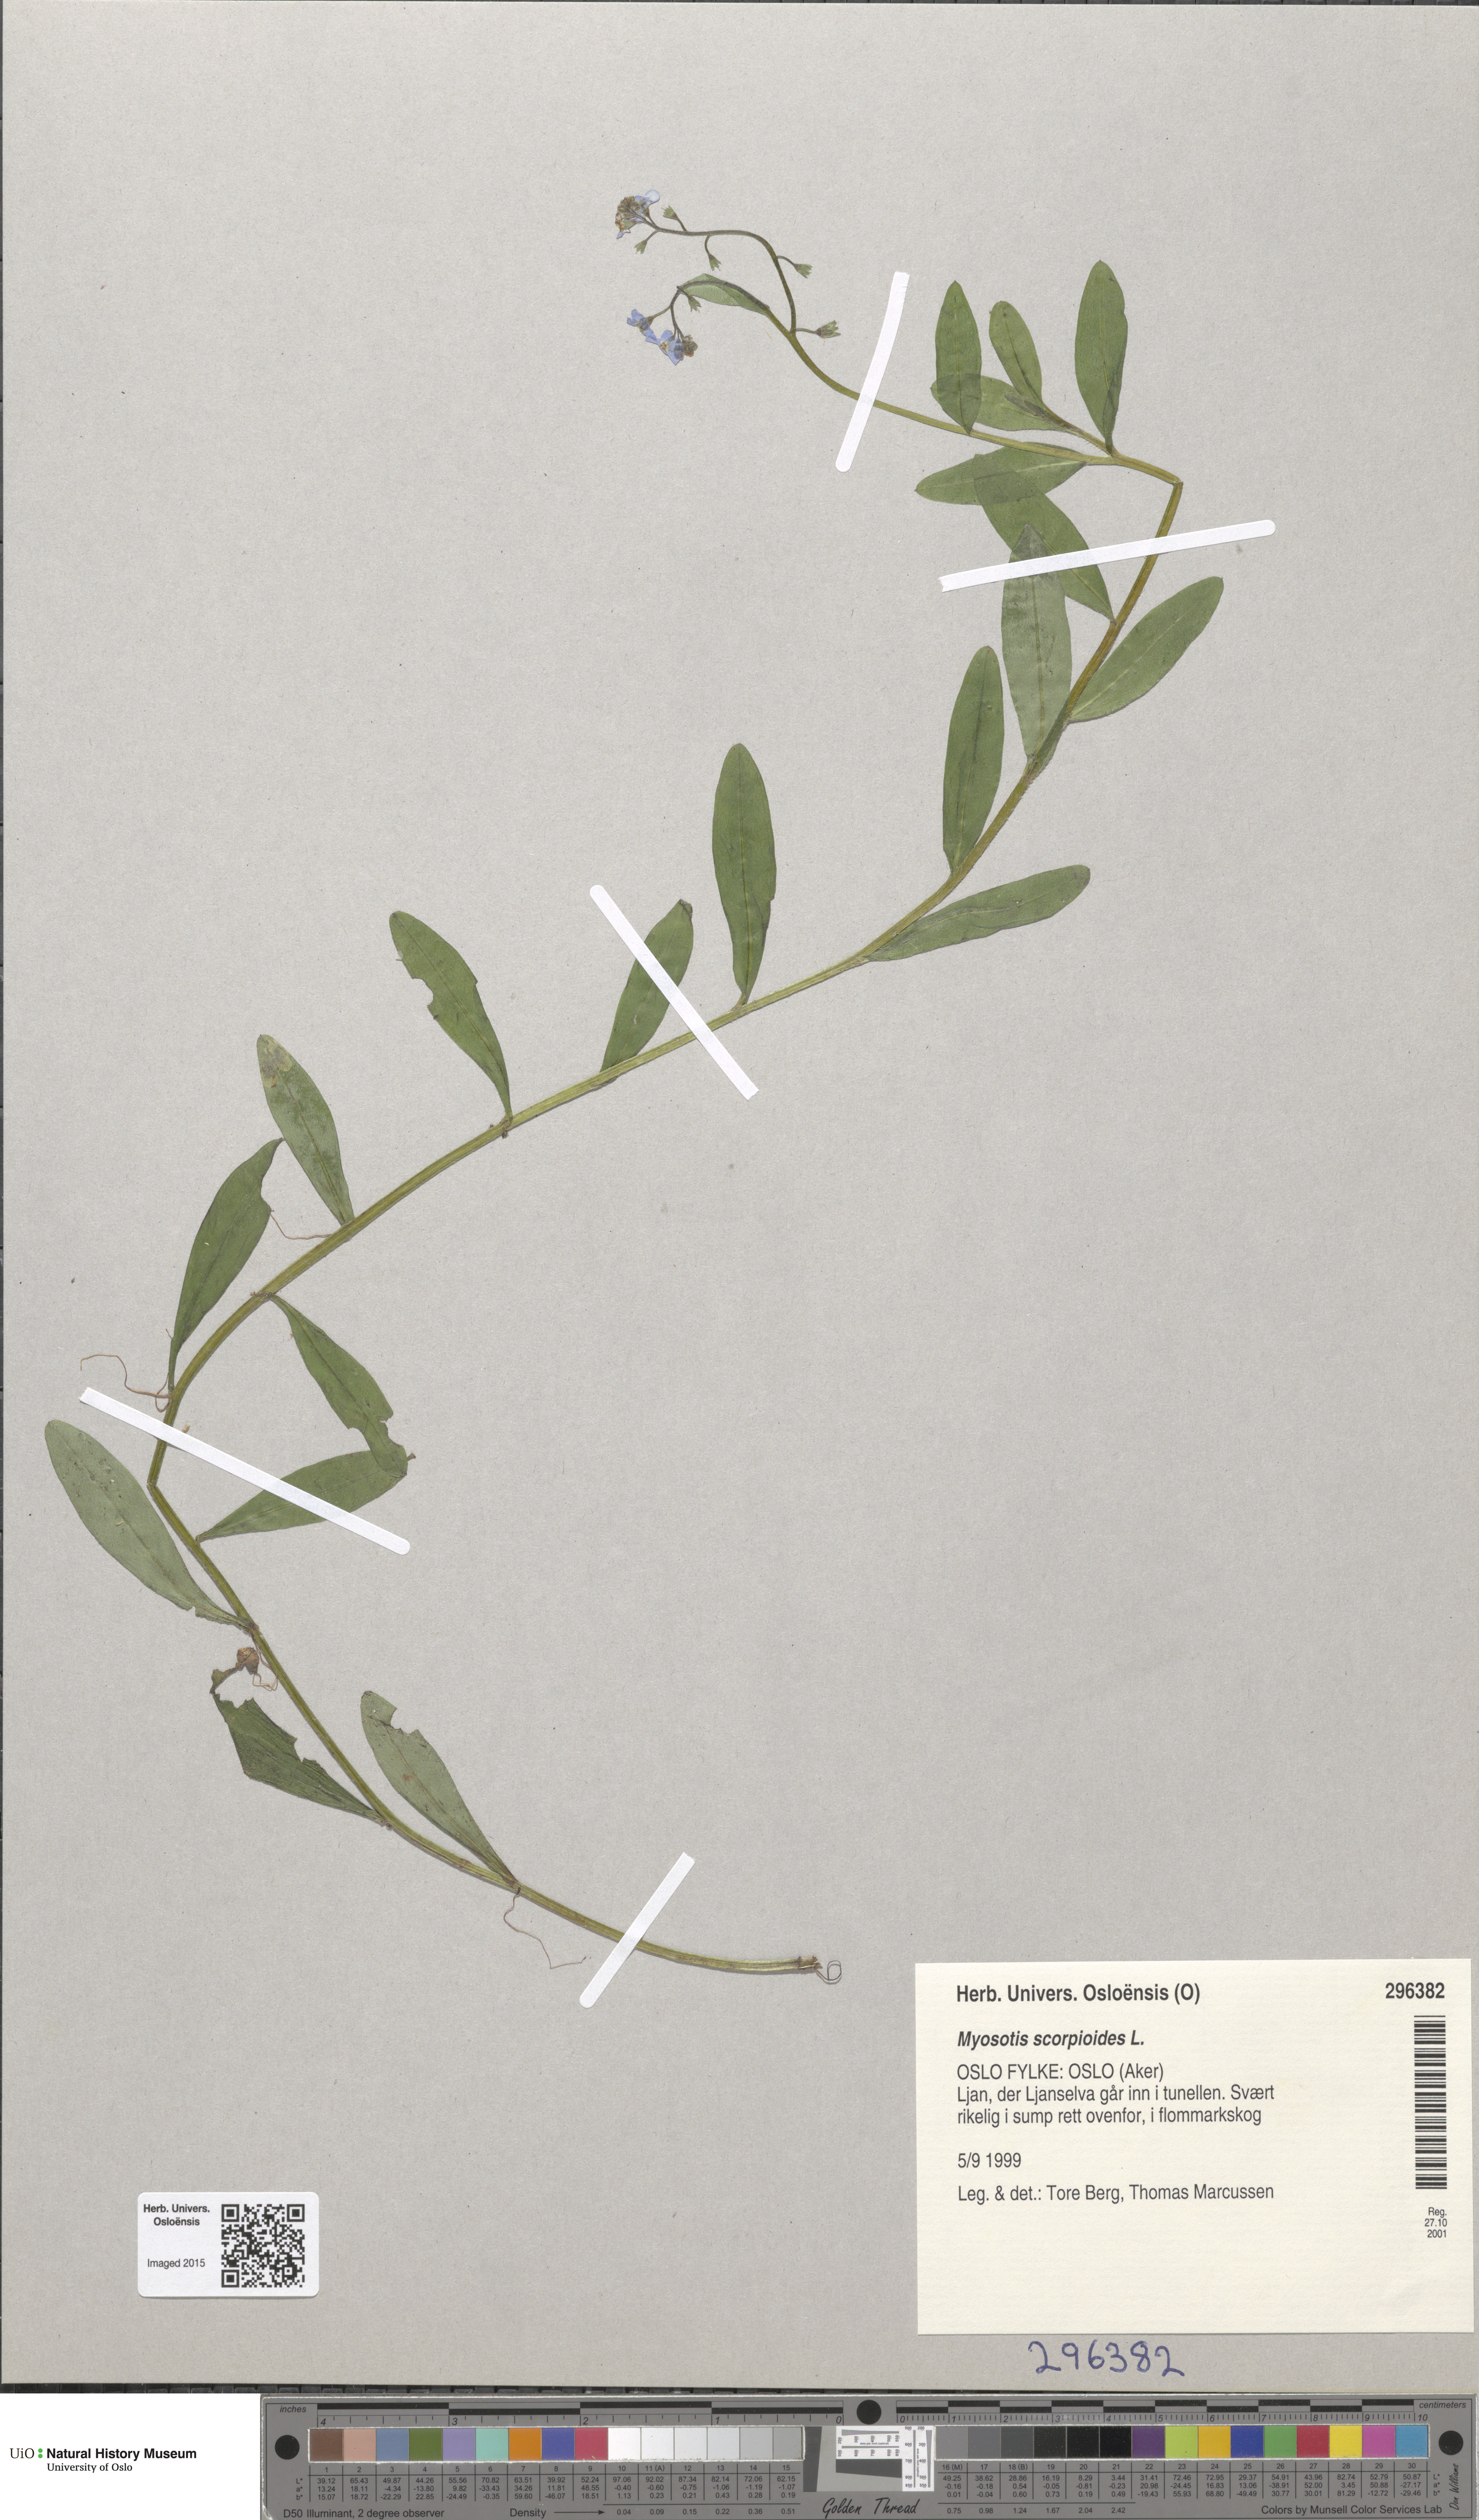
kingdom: Plantae
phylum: Tracheophyta
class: Magnoliopsida
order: Boraginales
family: Boraginaceae
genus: Myosotis
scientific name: Myosotis scorpioides
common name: Water forget-me-not
